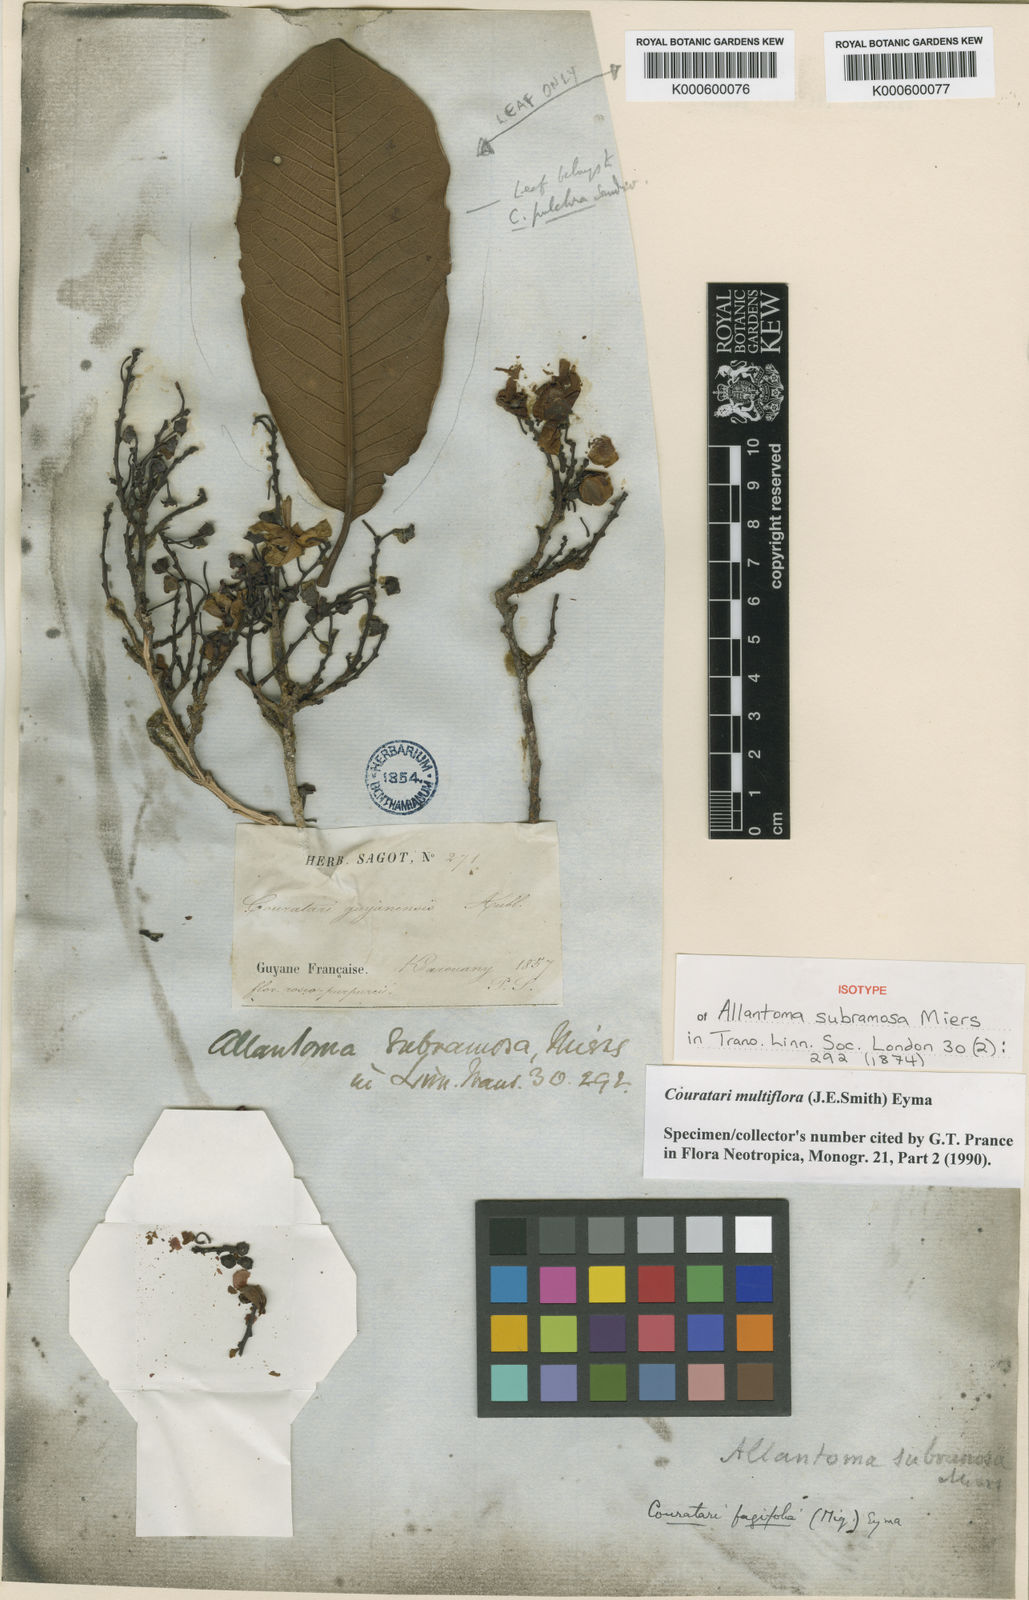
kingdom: Plantae
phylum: Tracheophyta
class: Magnoliopsida
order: Ericales
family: Lecythidaceae
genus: Couratari
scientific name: Couratari multiflora
